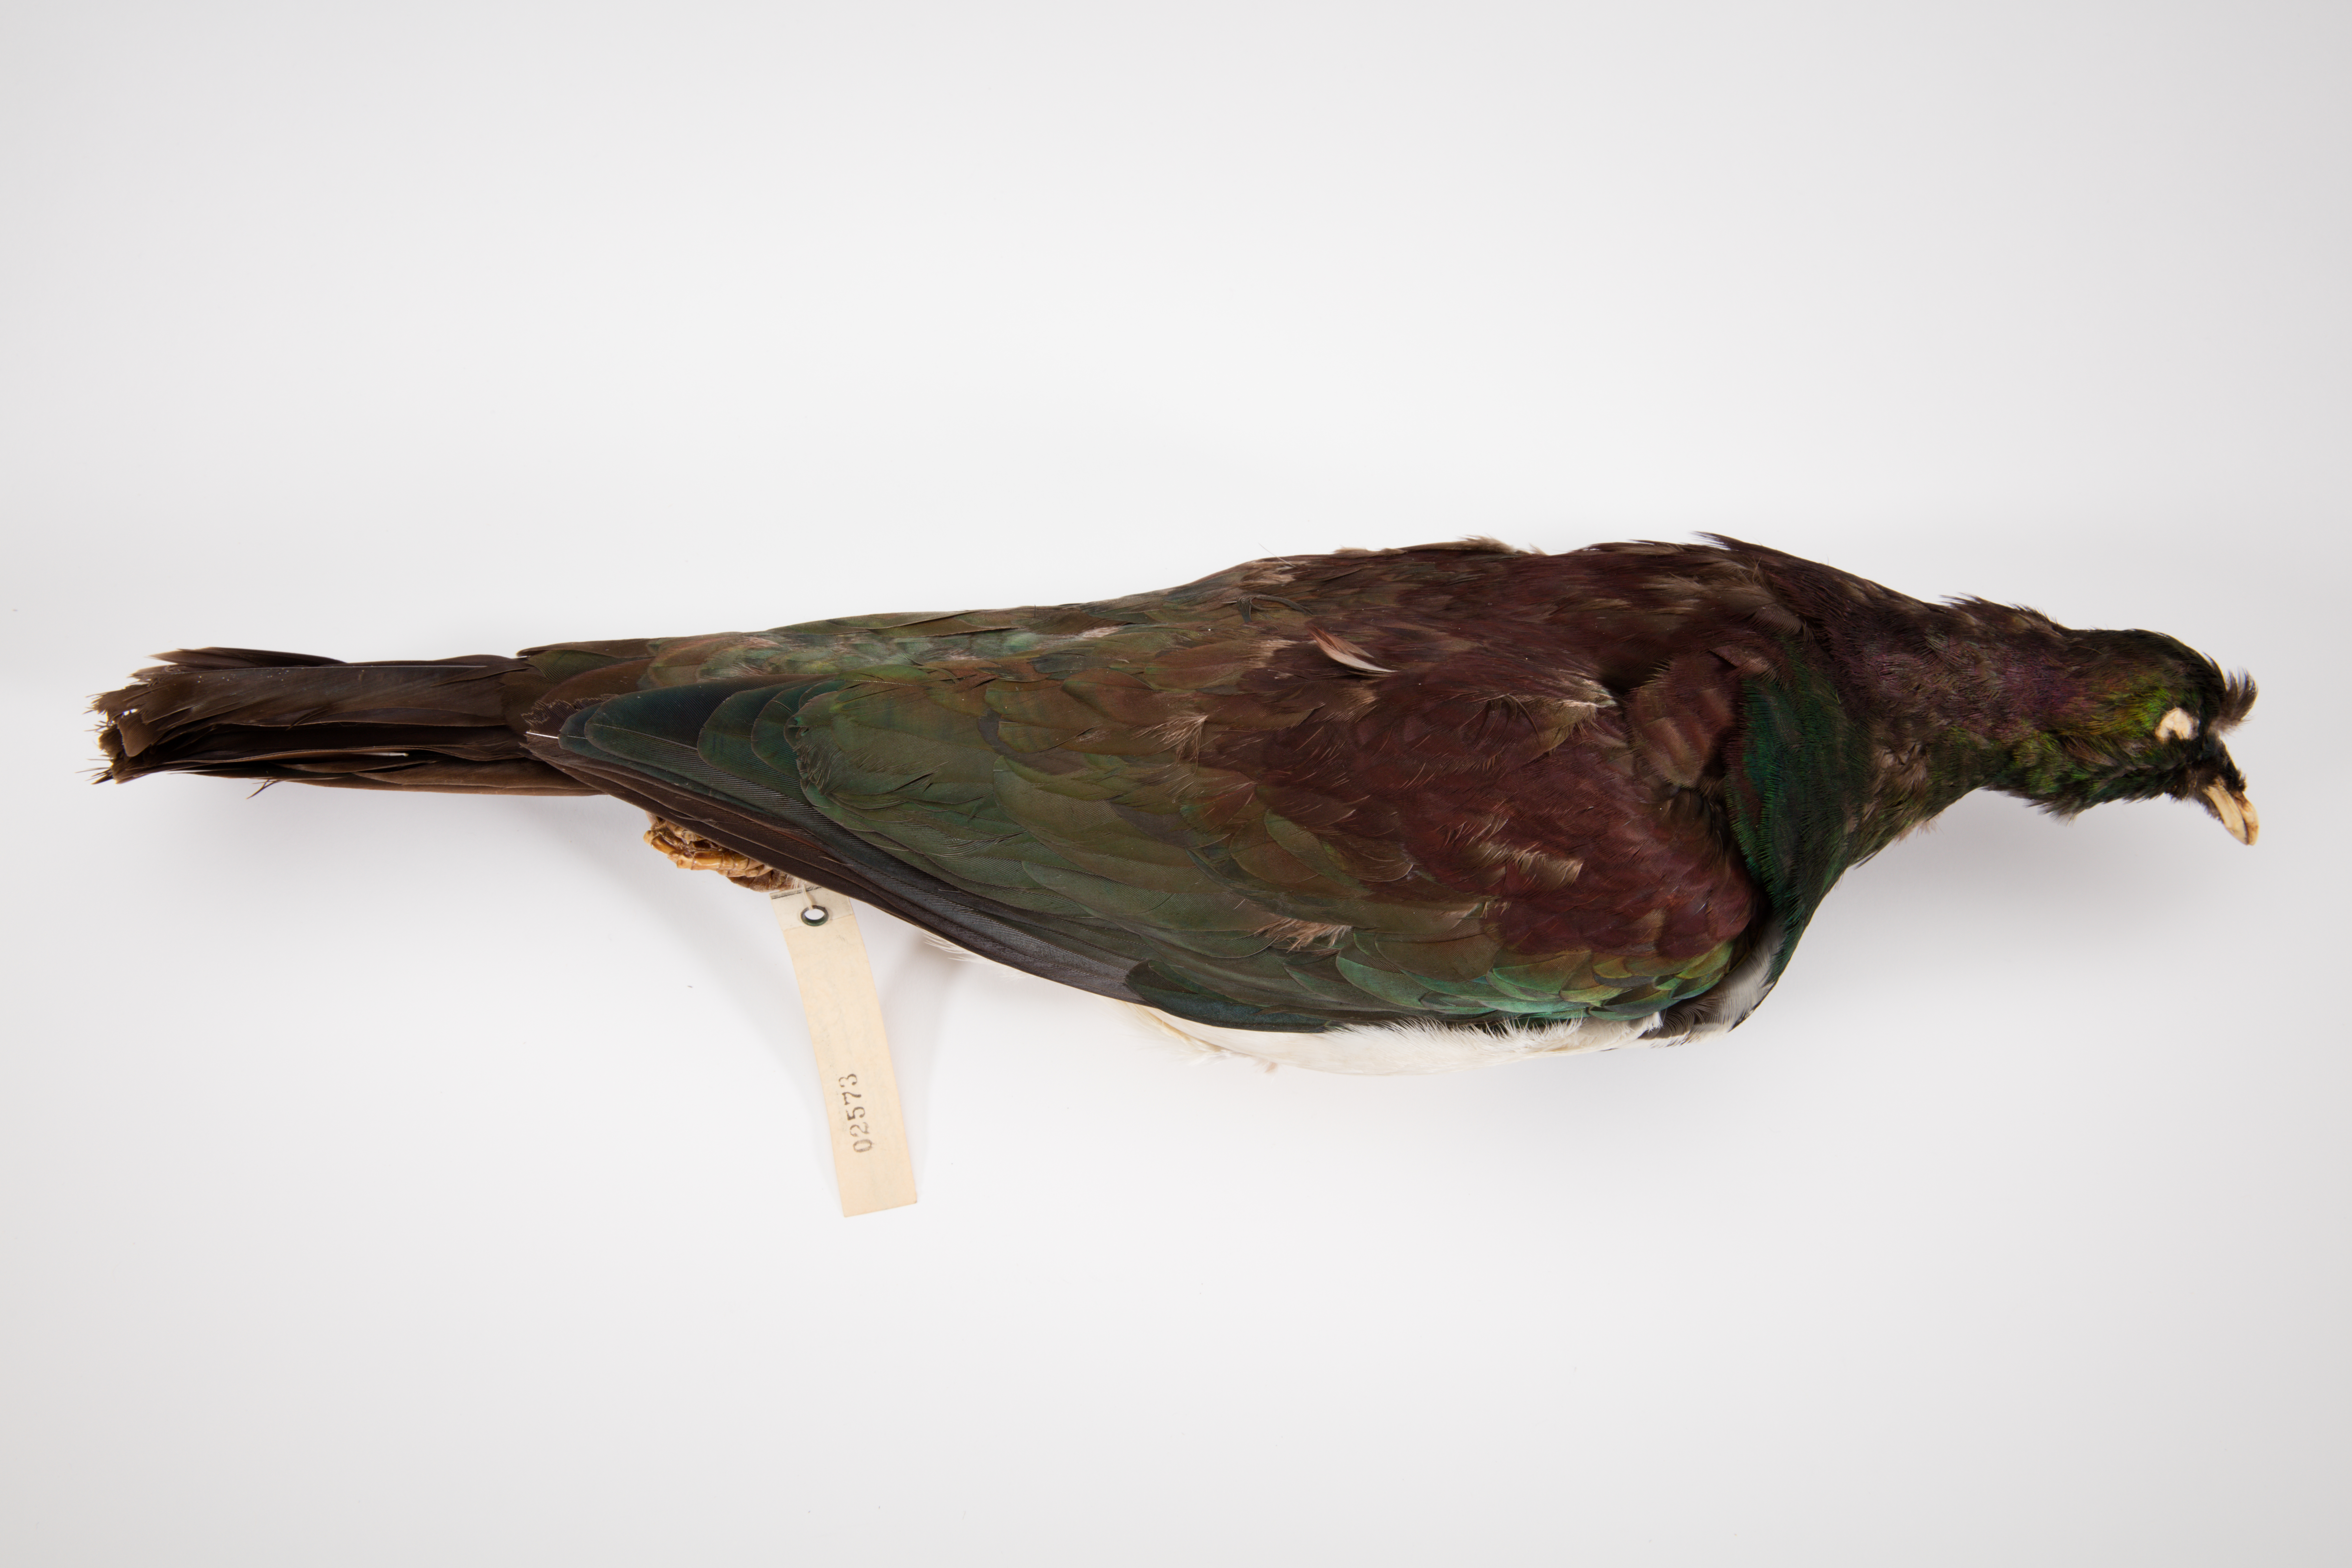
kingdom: Animalia
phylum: Chordata
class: Aves
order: Columbiformes
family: Columbidae
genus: Hemiphaga
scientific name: Hemiphaga novaeseelandiae
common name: New zealand pigeon
